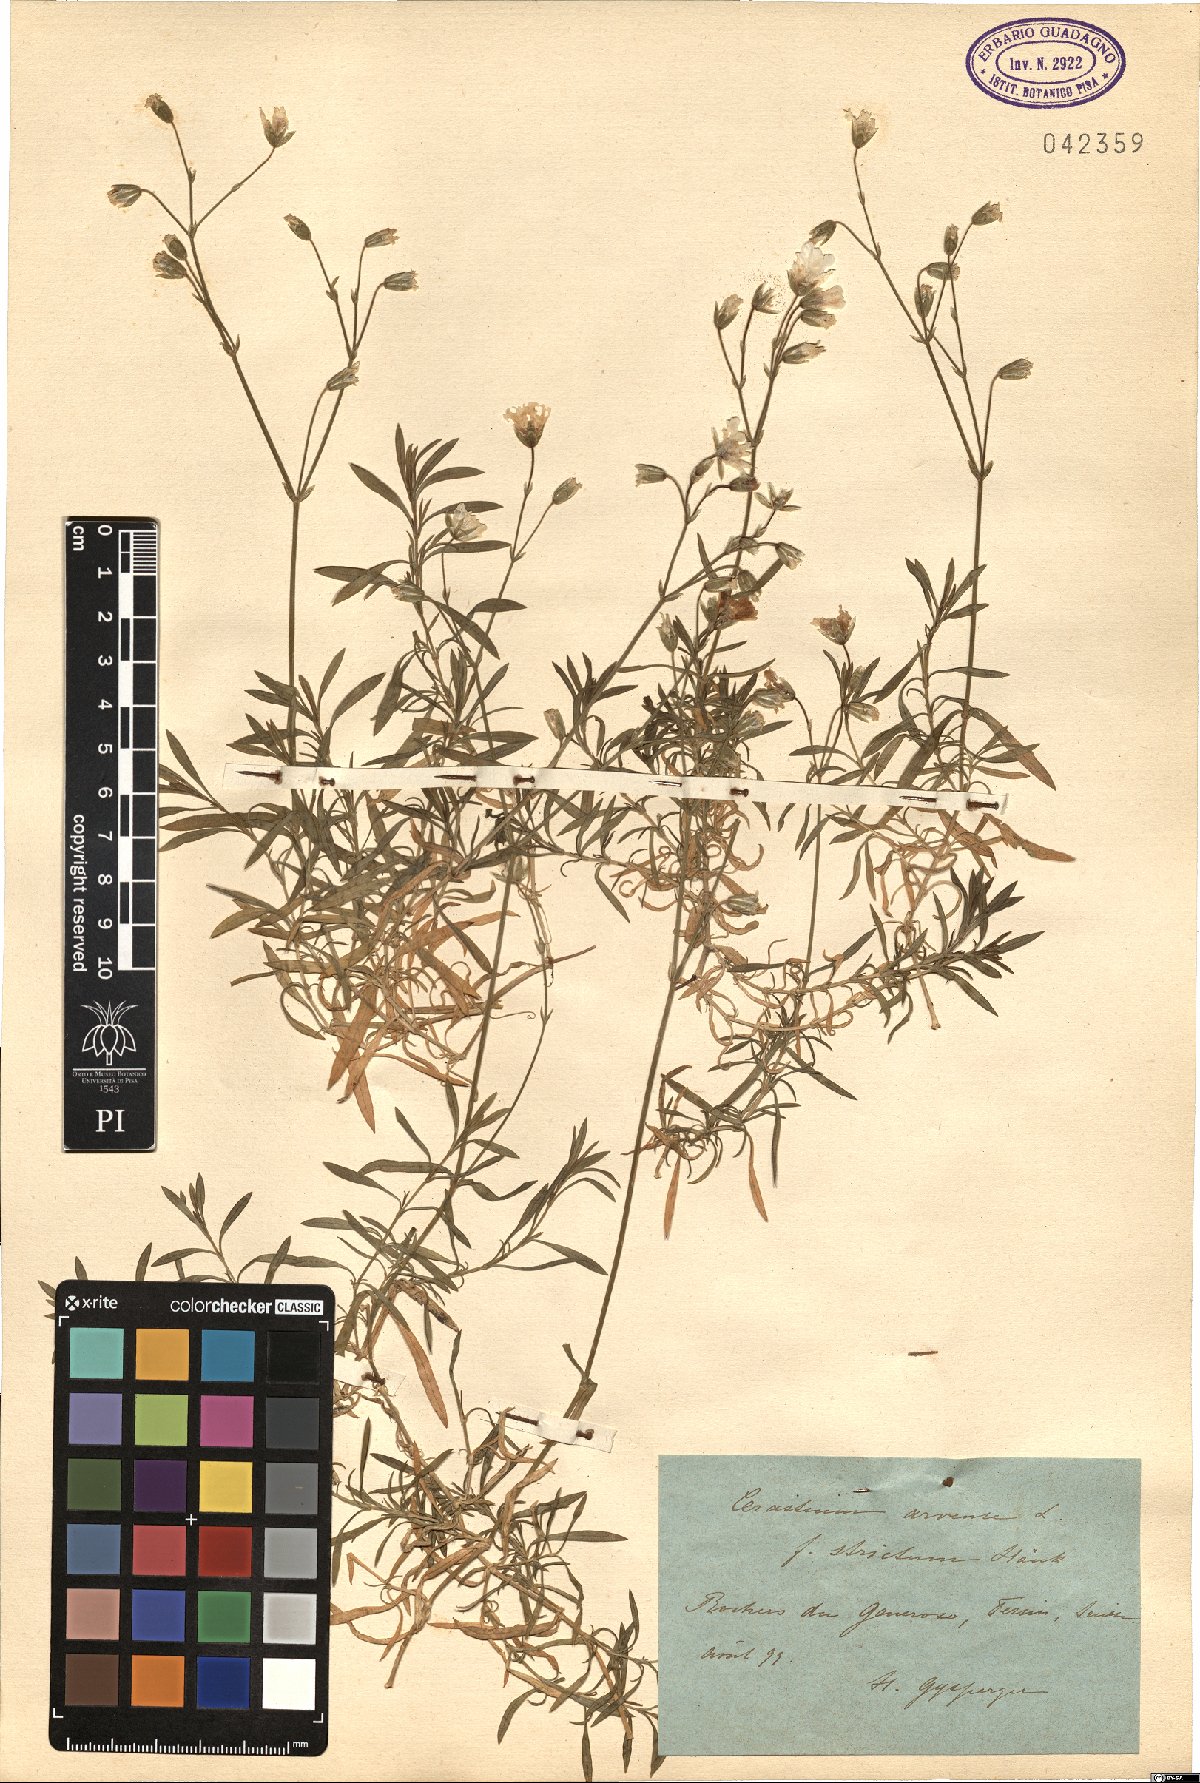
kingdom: Plantae
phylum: Tracheophyta
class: Magnoliopsida
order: Caryophyllales
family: Caryophyllaceae
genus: Cerastium
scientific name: Cerastium arvense
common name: Field mouse-ear
